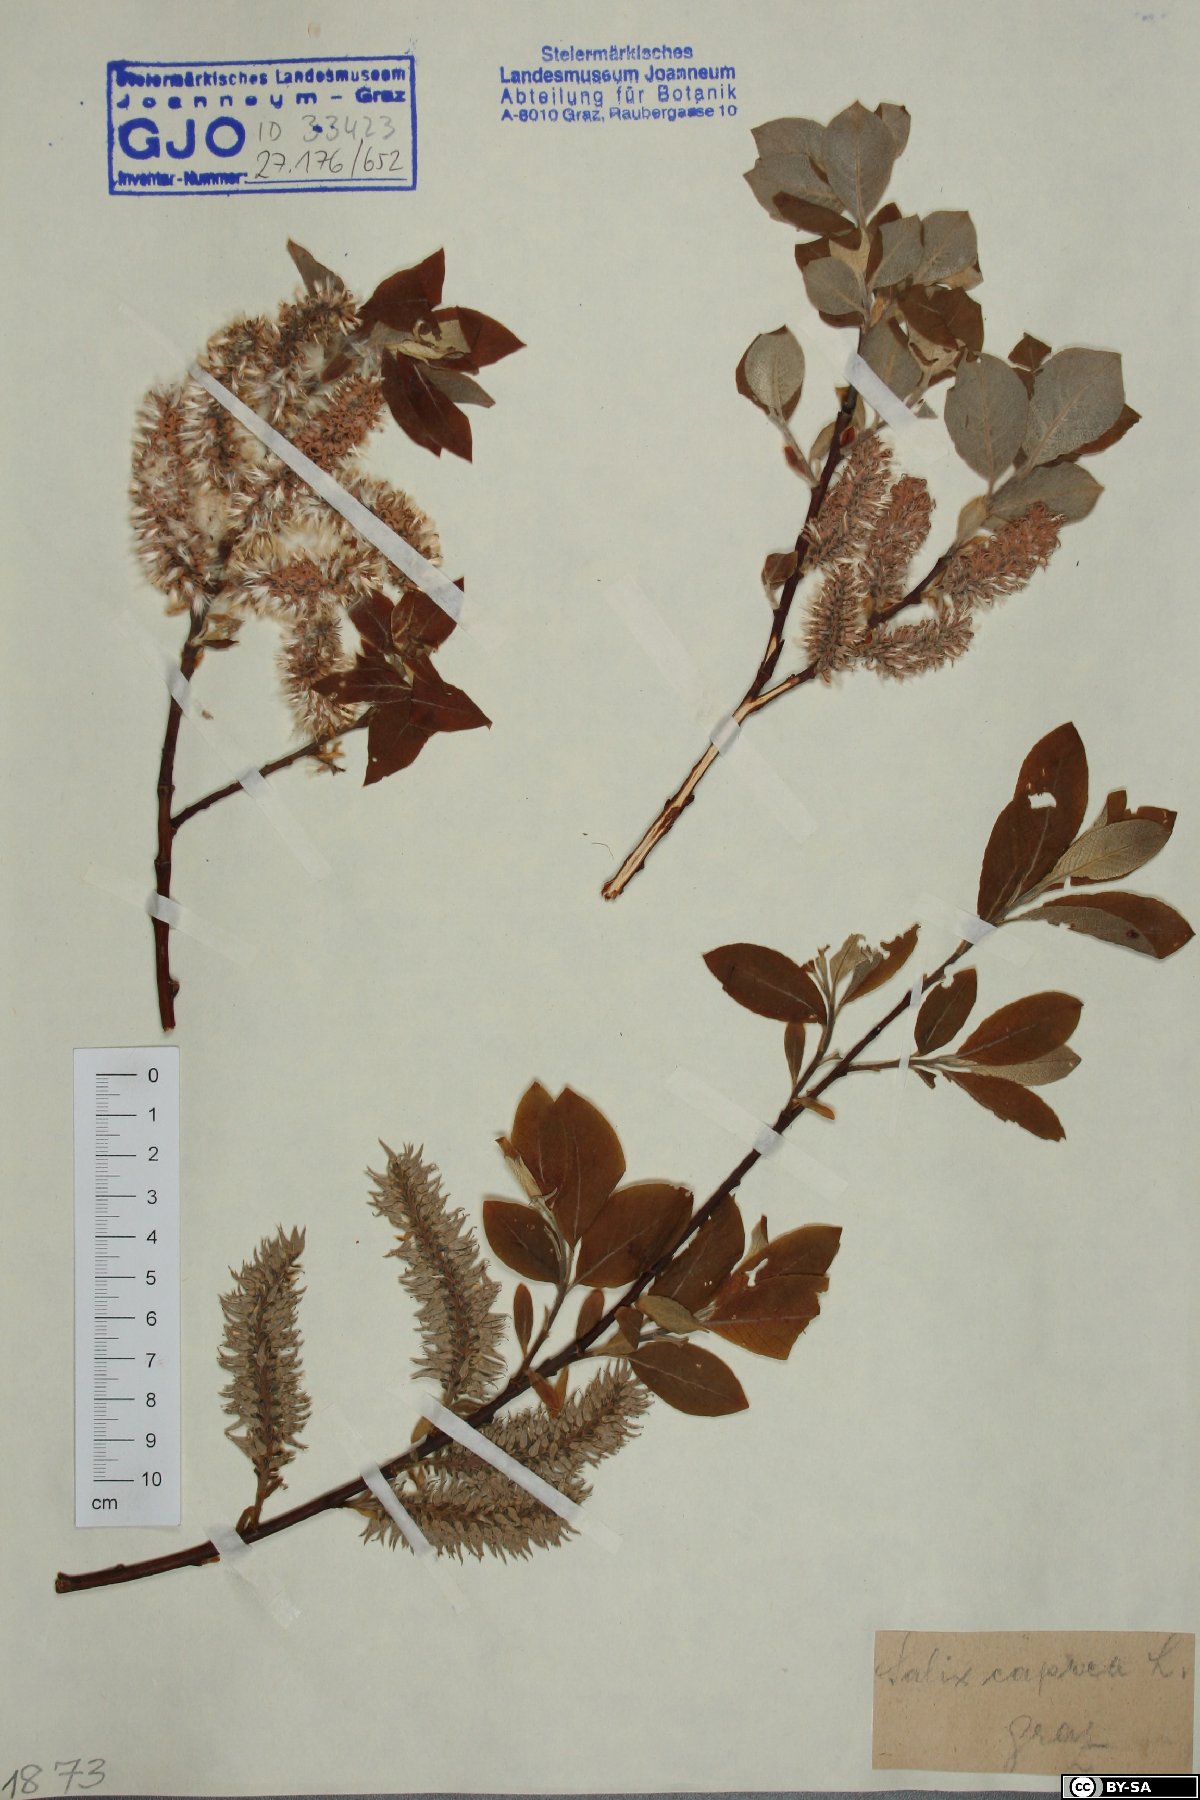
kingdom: Plantae
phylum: Tracheophyta
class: Magnoliopsida
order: Malpighiales
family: Salicaceae
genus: Salix
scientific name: Salix caprea
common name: Goat willow
